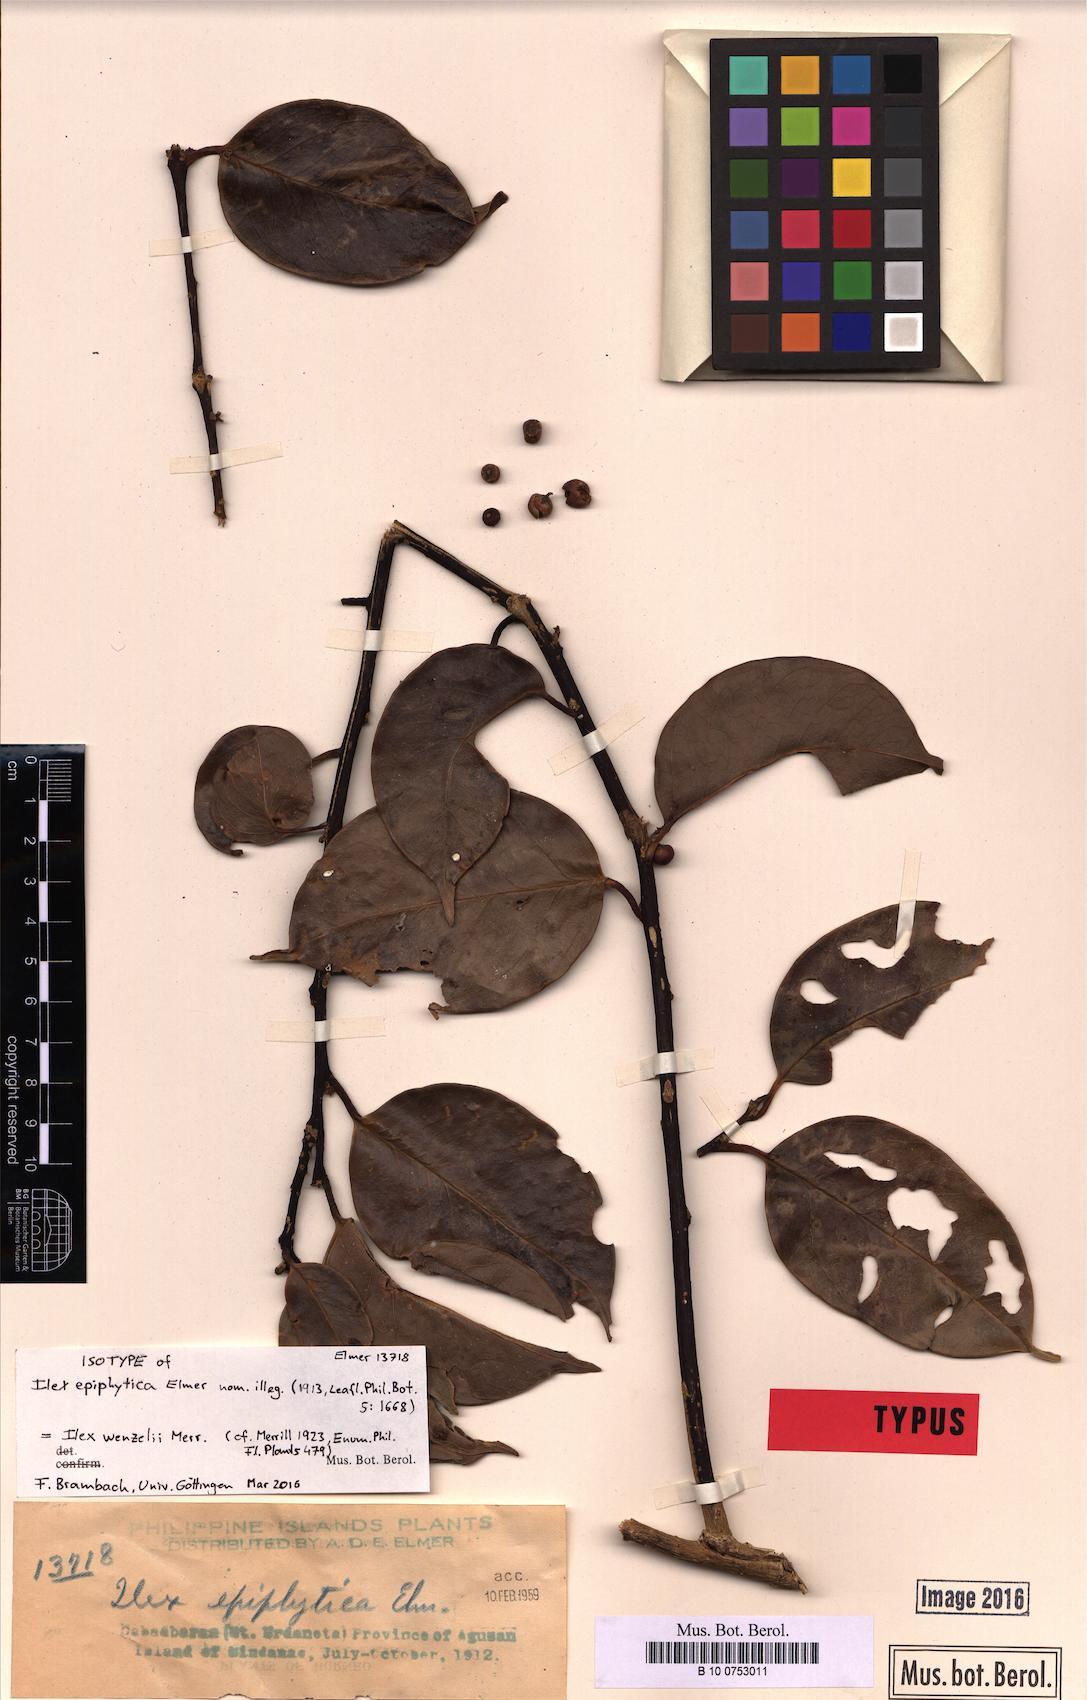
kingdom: Plantae
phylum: Tracheophyta
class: Magnoliopsida
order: Aquifoliales
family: Aquifoliaceae
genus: Ilex
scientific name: Ilex
